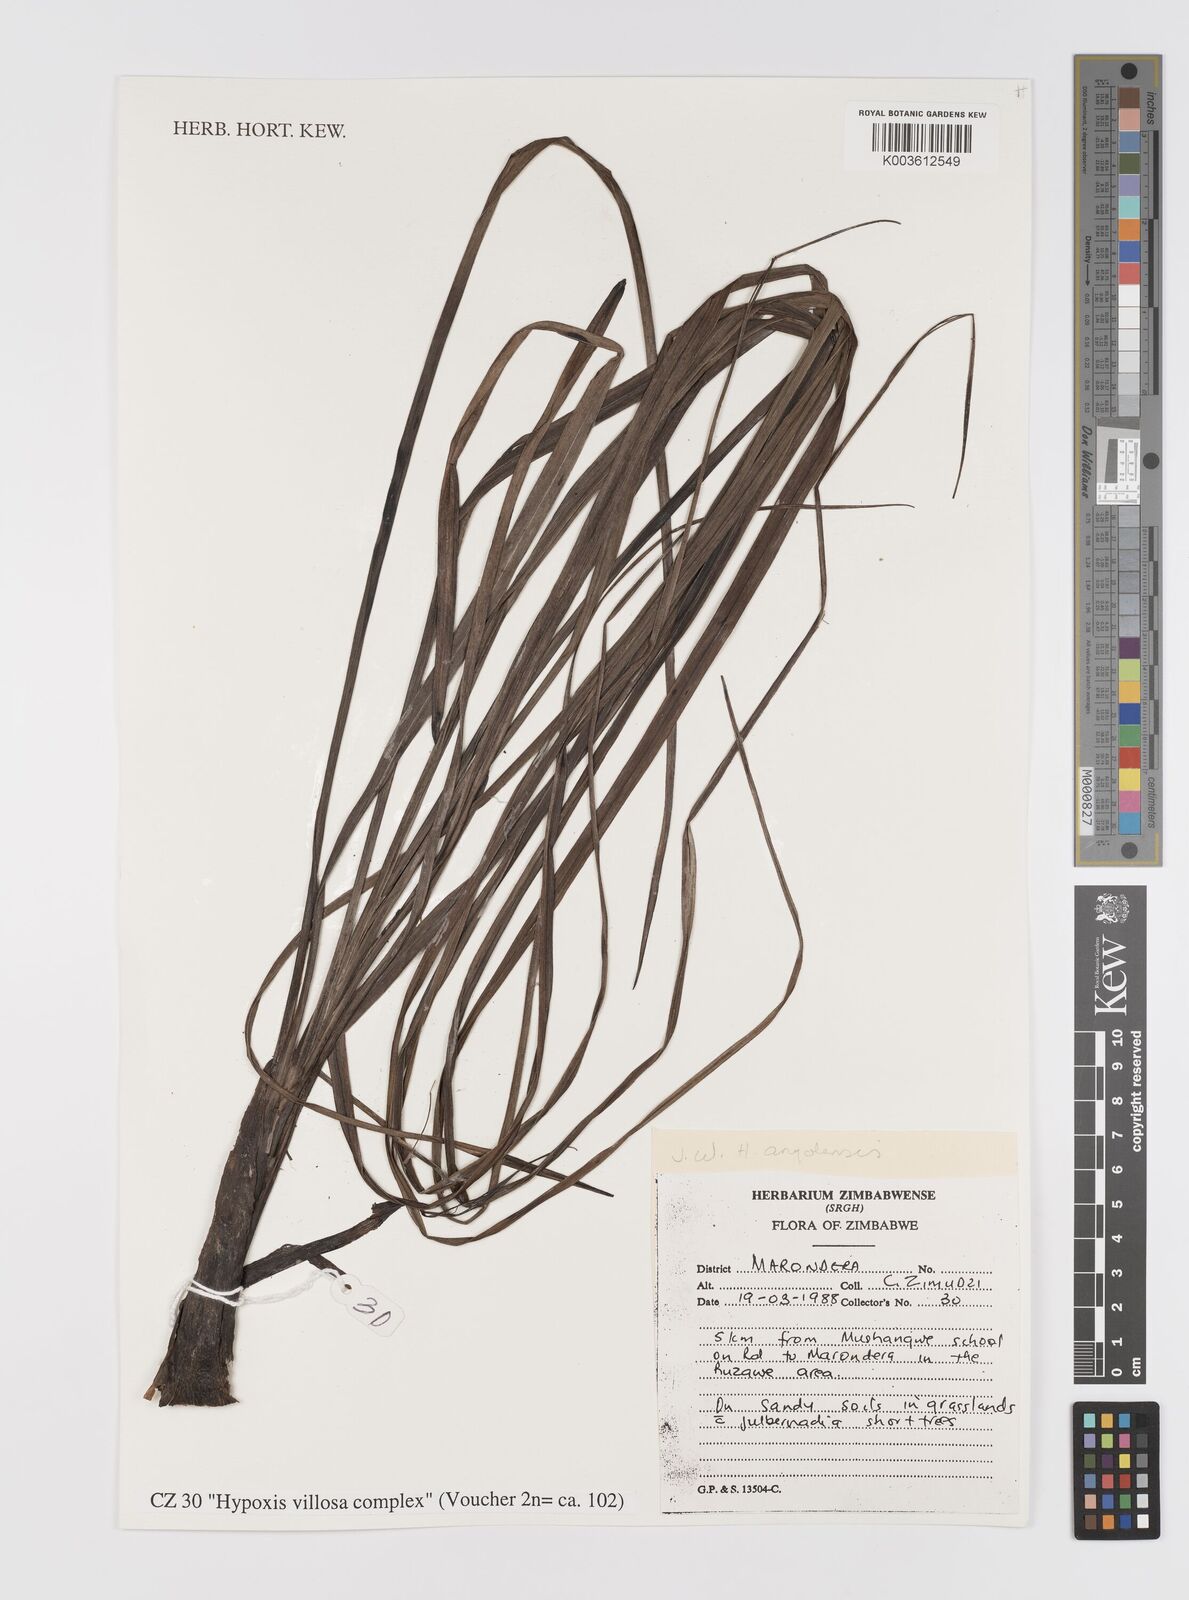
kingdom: Plantae
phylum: Tracheophyta
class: Liliopsida
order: Asparagales
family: Hypoxidaceae
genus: Hypoxis
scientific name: Hypoxis
